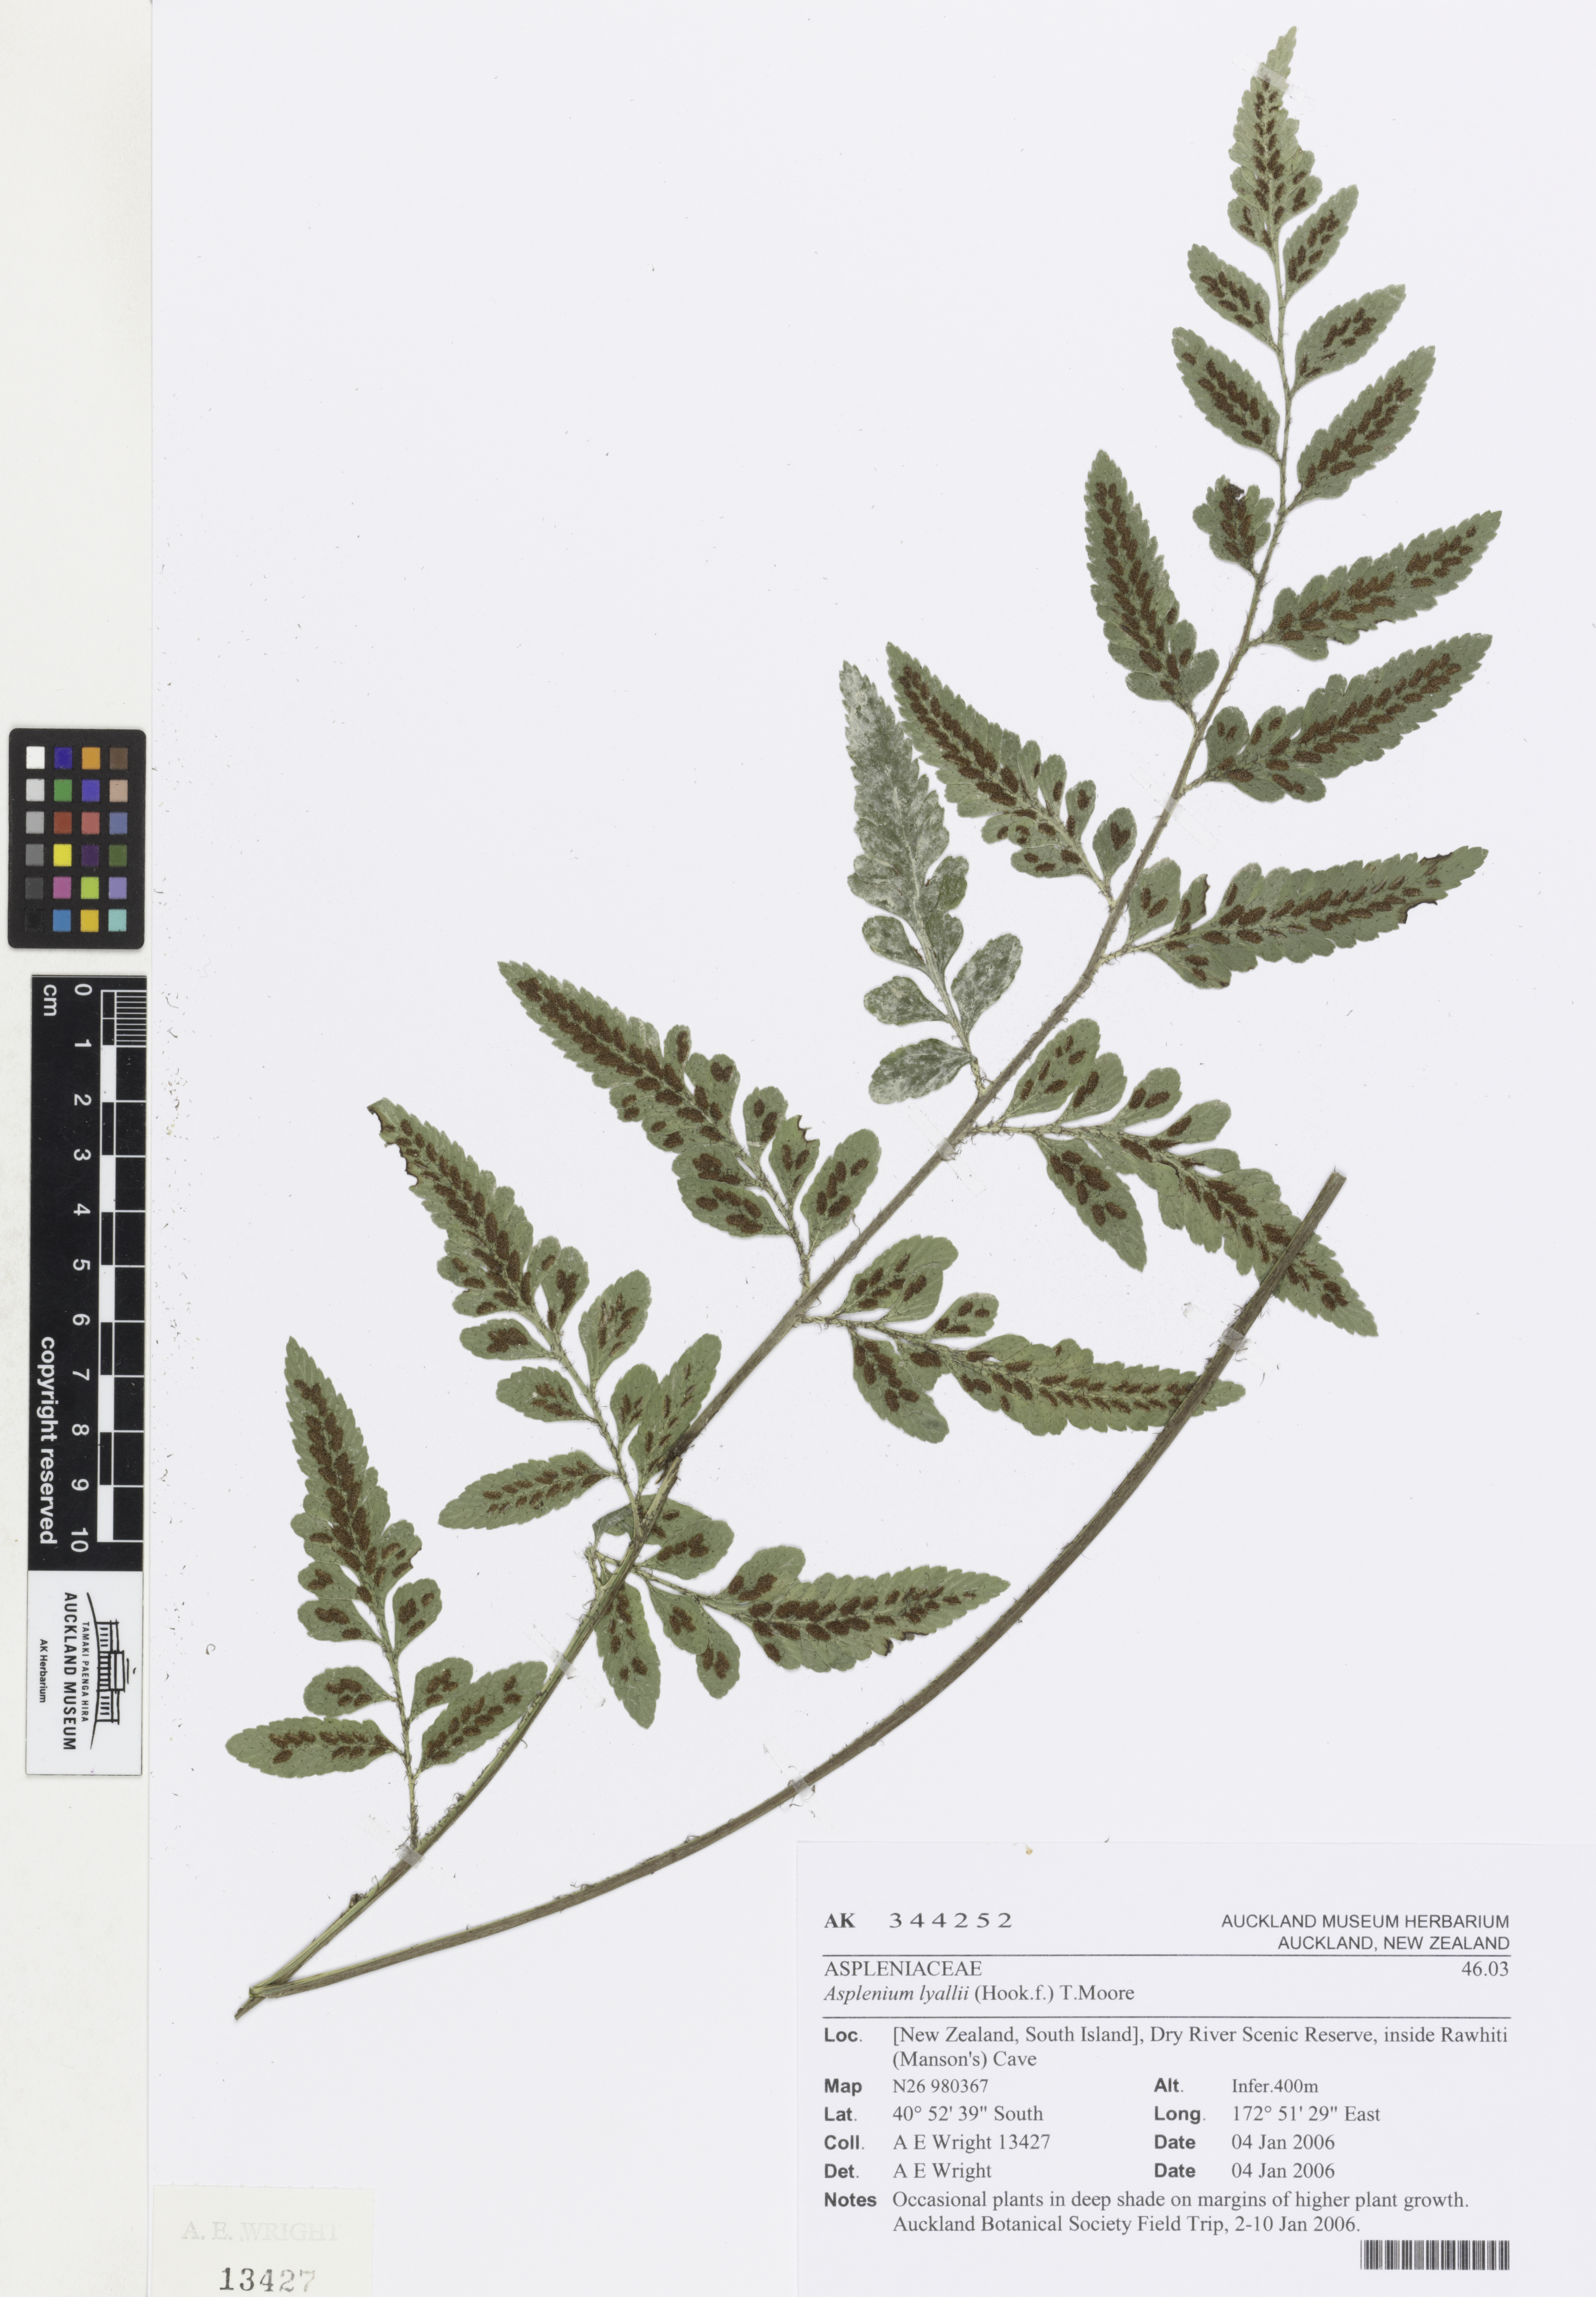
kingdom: Plantae
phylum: Tracheophyta
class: Polypodiopsida
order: Polypodiales
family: Aspleniaceae
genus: Asplenium
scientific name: Asplenium lyallii
